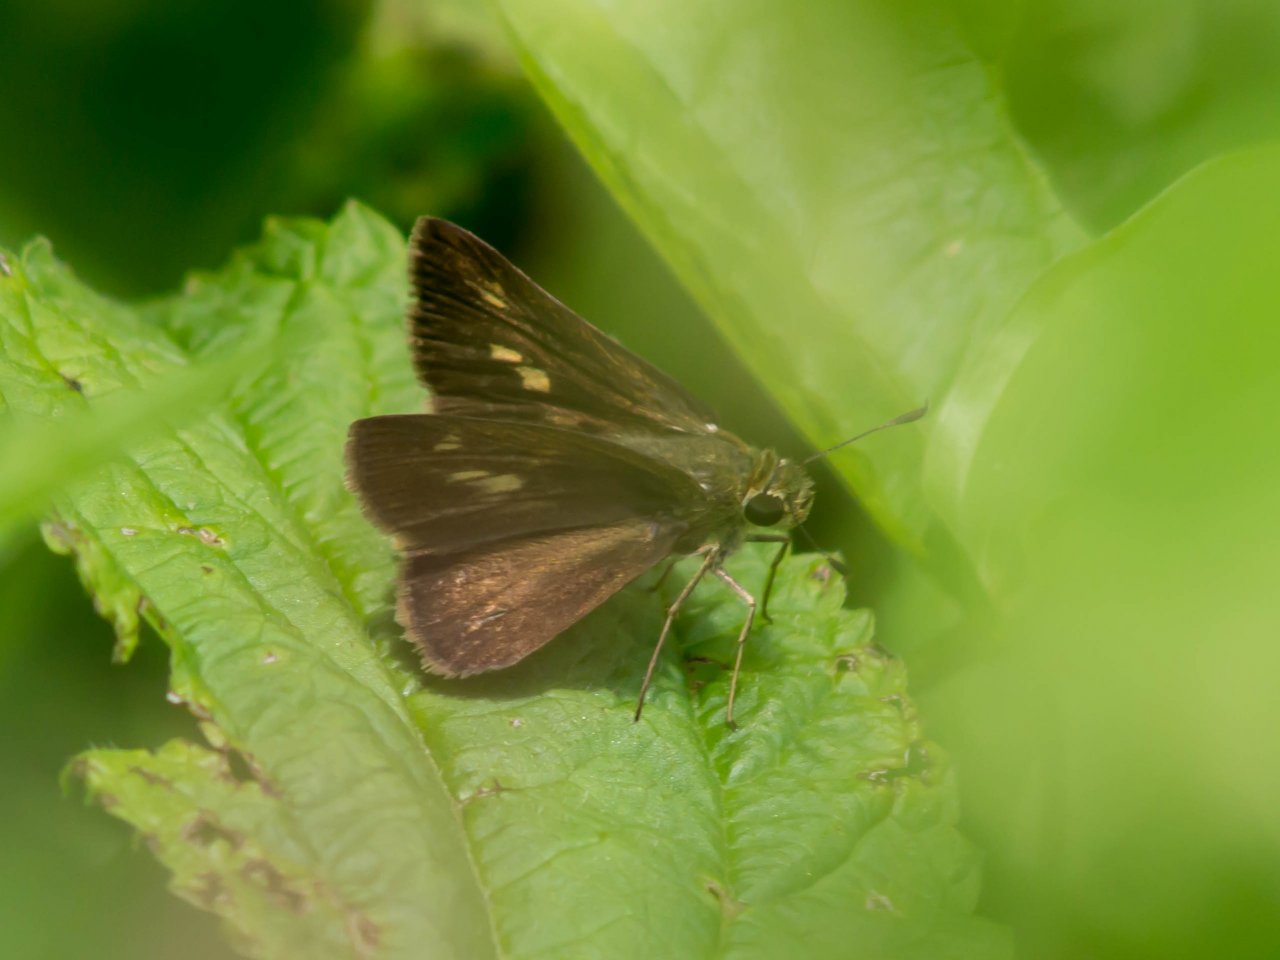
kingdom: Animalia
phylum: Arthropoda
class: Insecta
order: Lepidoptera
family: Hesperiidae
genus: Polites
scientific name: Polites egeremet
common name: Northern Broken-Dash
